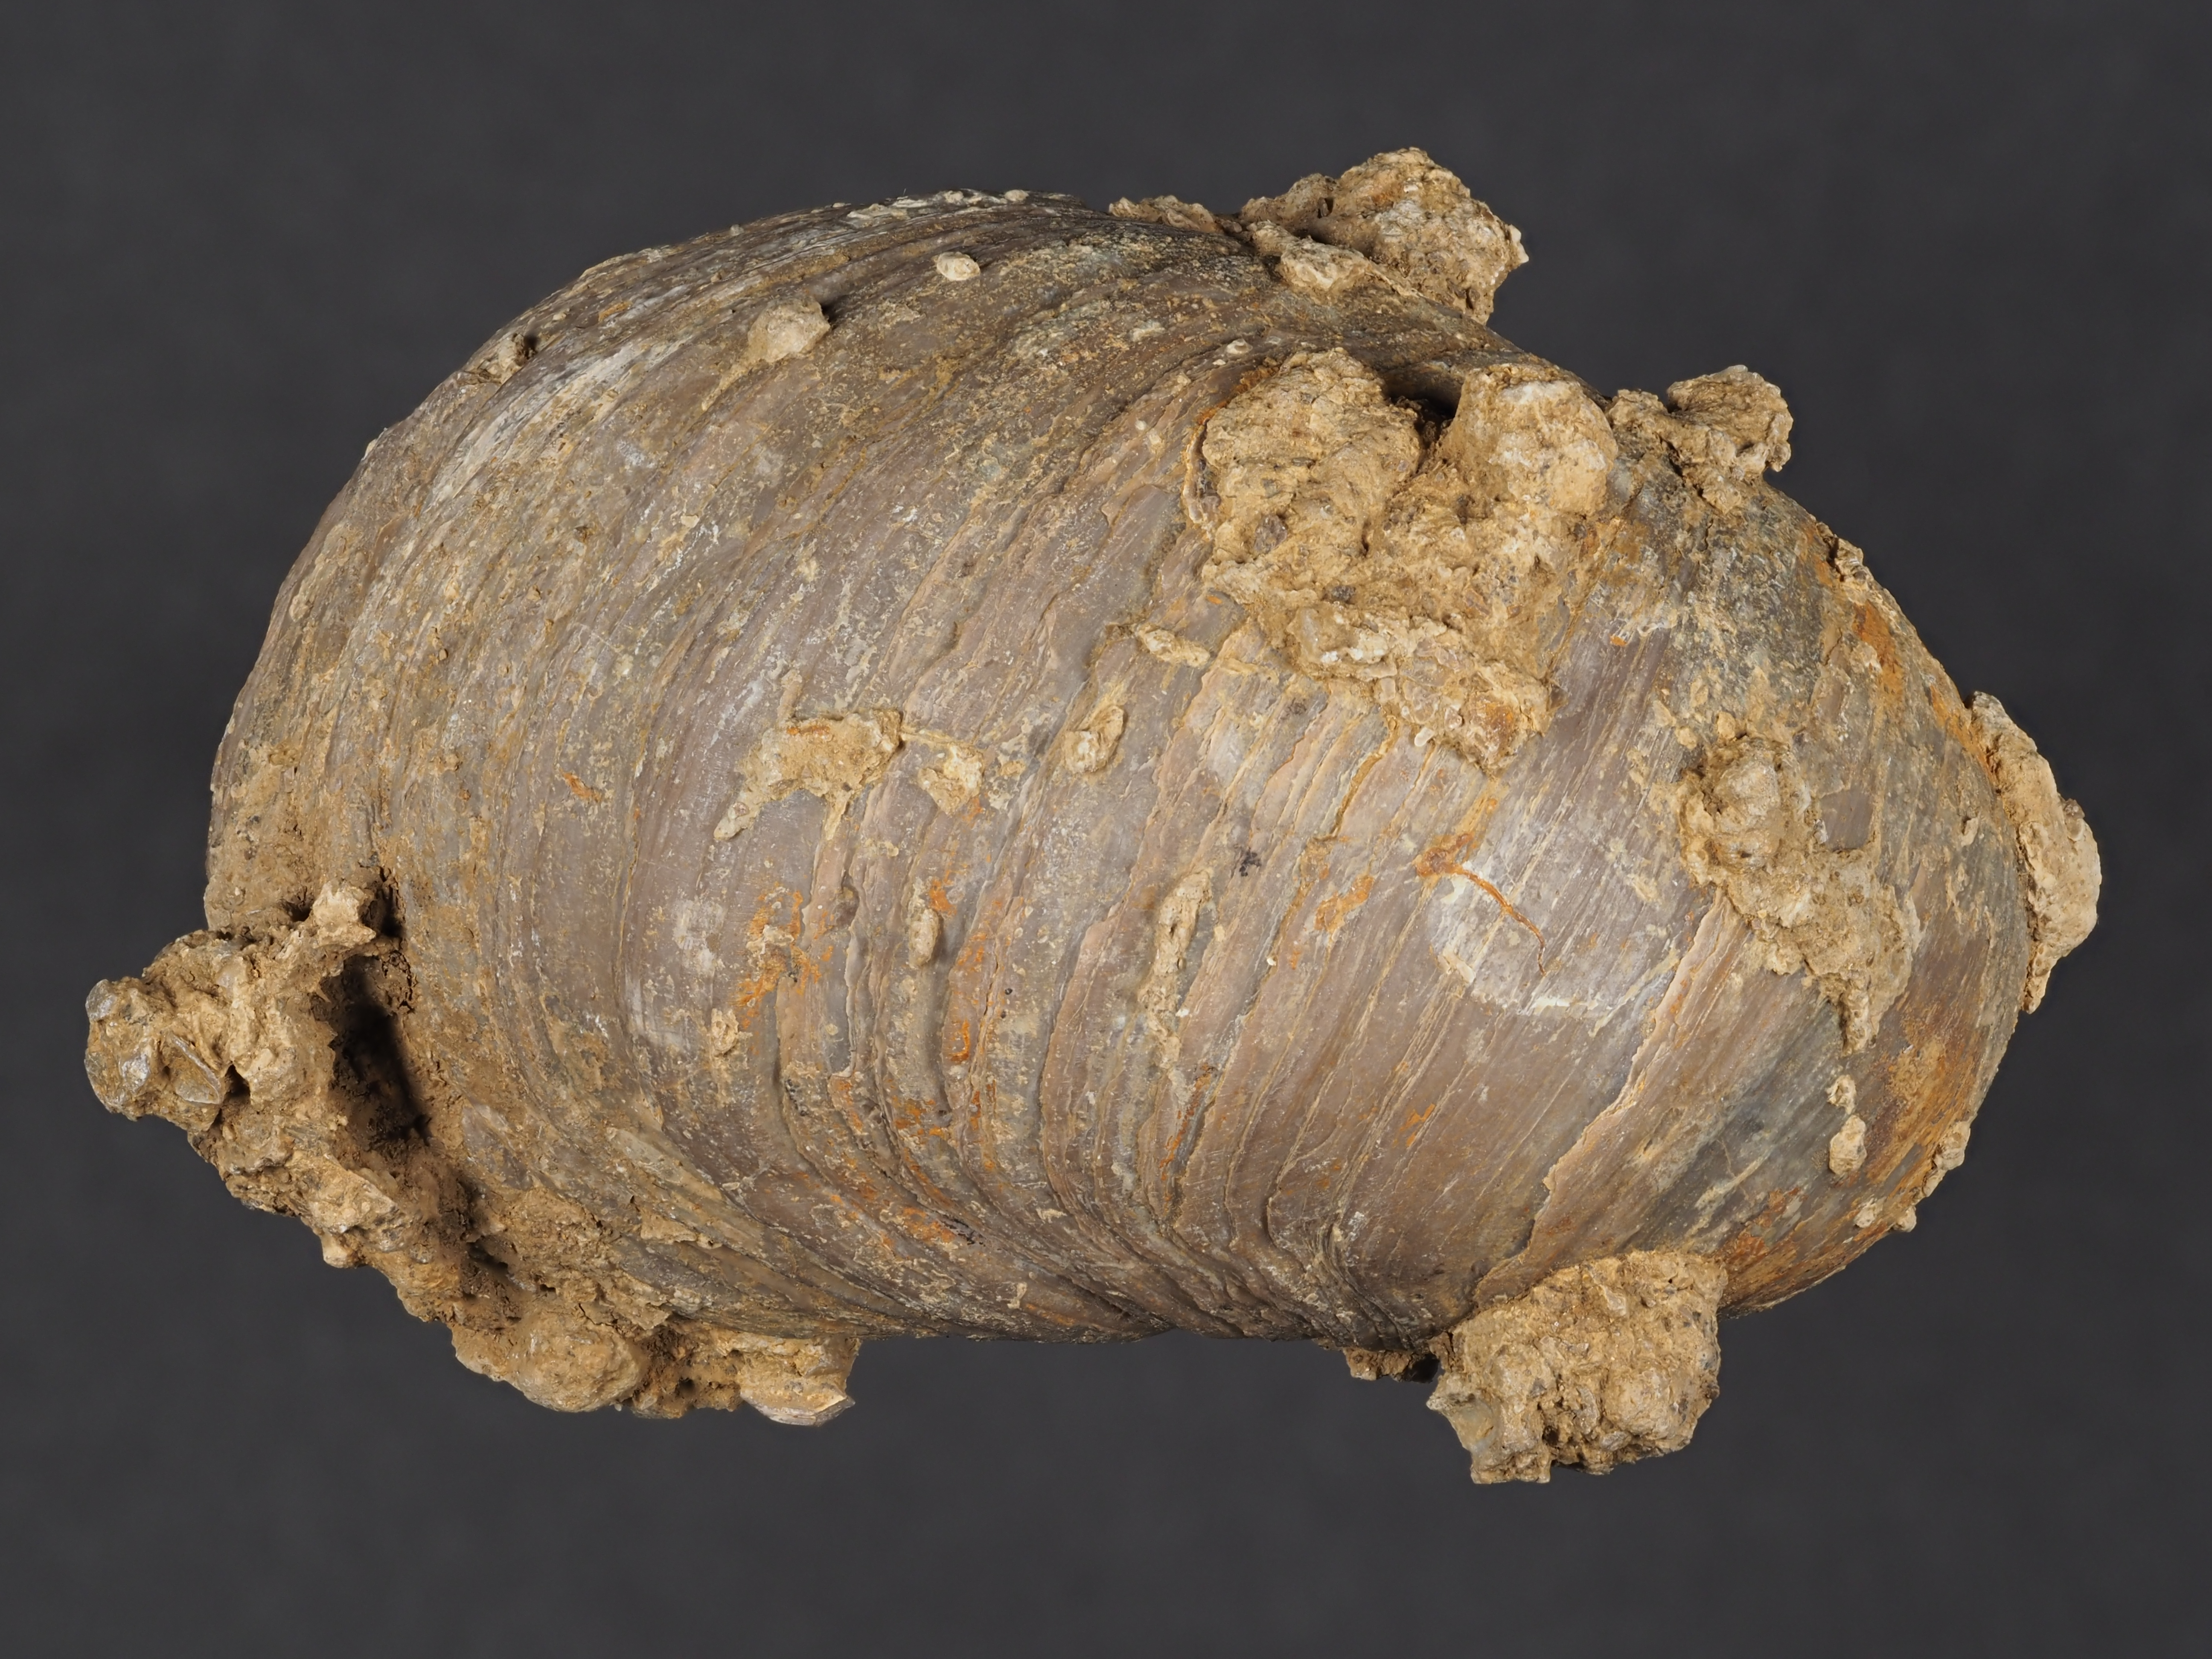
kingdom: Animalia
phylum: Mollusca
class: Bivalvia
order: Ostreida
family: Gryphaeidae
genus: Gryphaea
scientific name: Gryphaea
